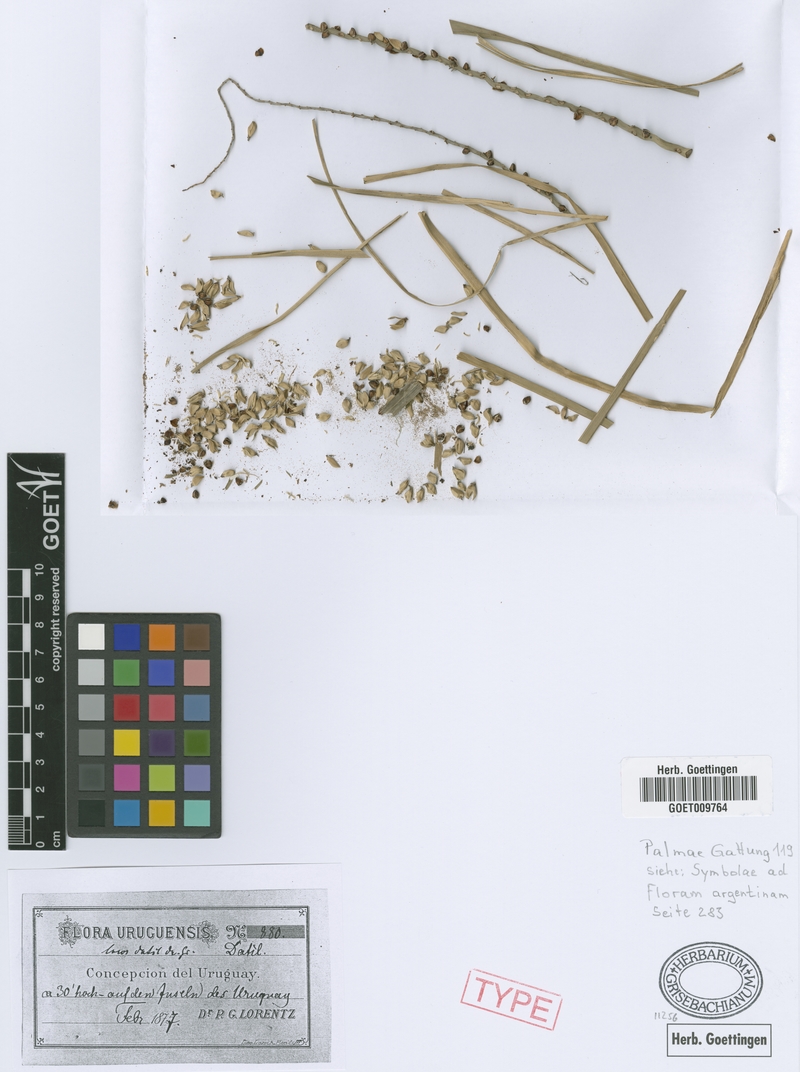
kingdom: Plantae
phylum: Tracheophyta
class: Liliopsida
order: Arecales
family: Arecaceae
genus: Syagrus
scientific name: Syagrus romanzoffiana
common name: Queen palm
